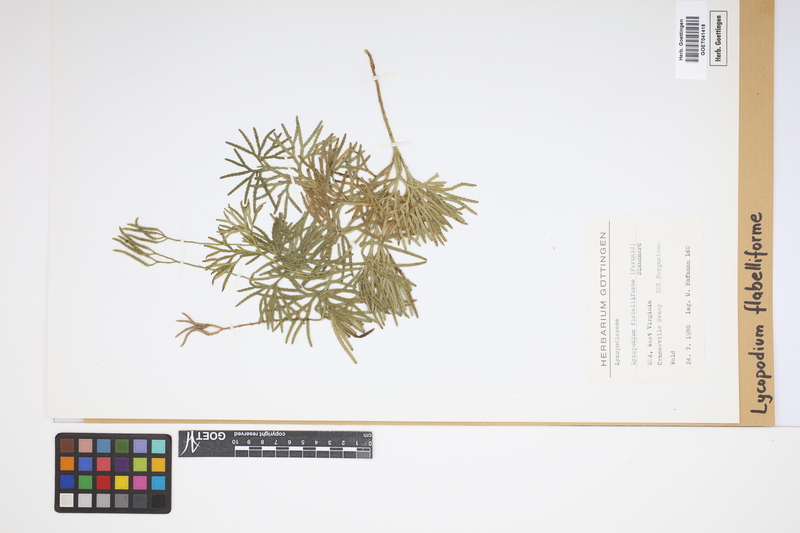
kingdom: Plantae
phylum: Tracheophyta
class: Lycopodiopsida
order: Lycopodiales
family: Lycopodiaceae
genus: Diphasiastrum
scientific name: Diphasiastrum digitatum
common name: Southern running-pine
